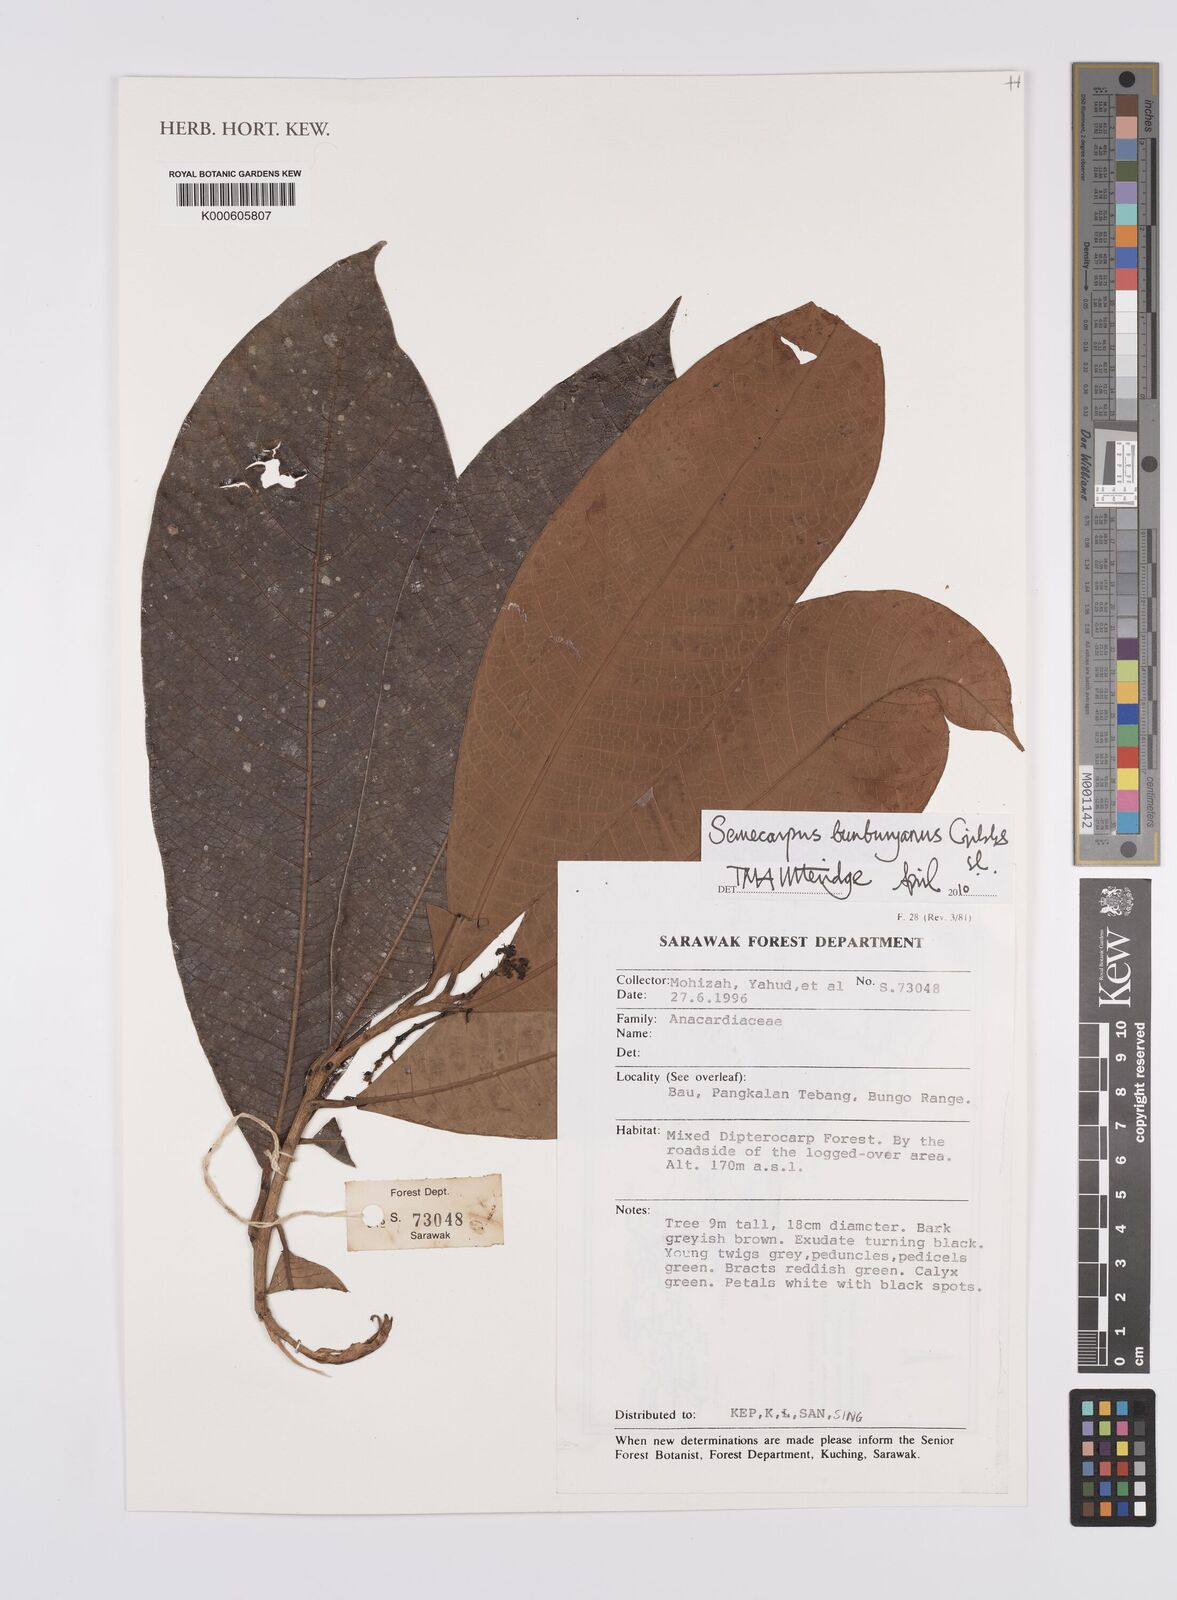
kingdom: Plantae
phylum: Tracheophyta
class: Magnoliopsida
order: Sapindales
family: Anacardiaceae
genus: Semecarpus
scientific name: Semecarpus bunburyanus
